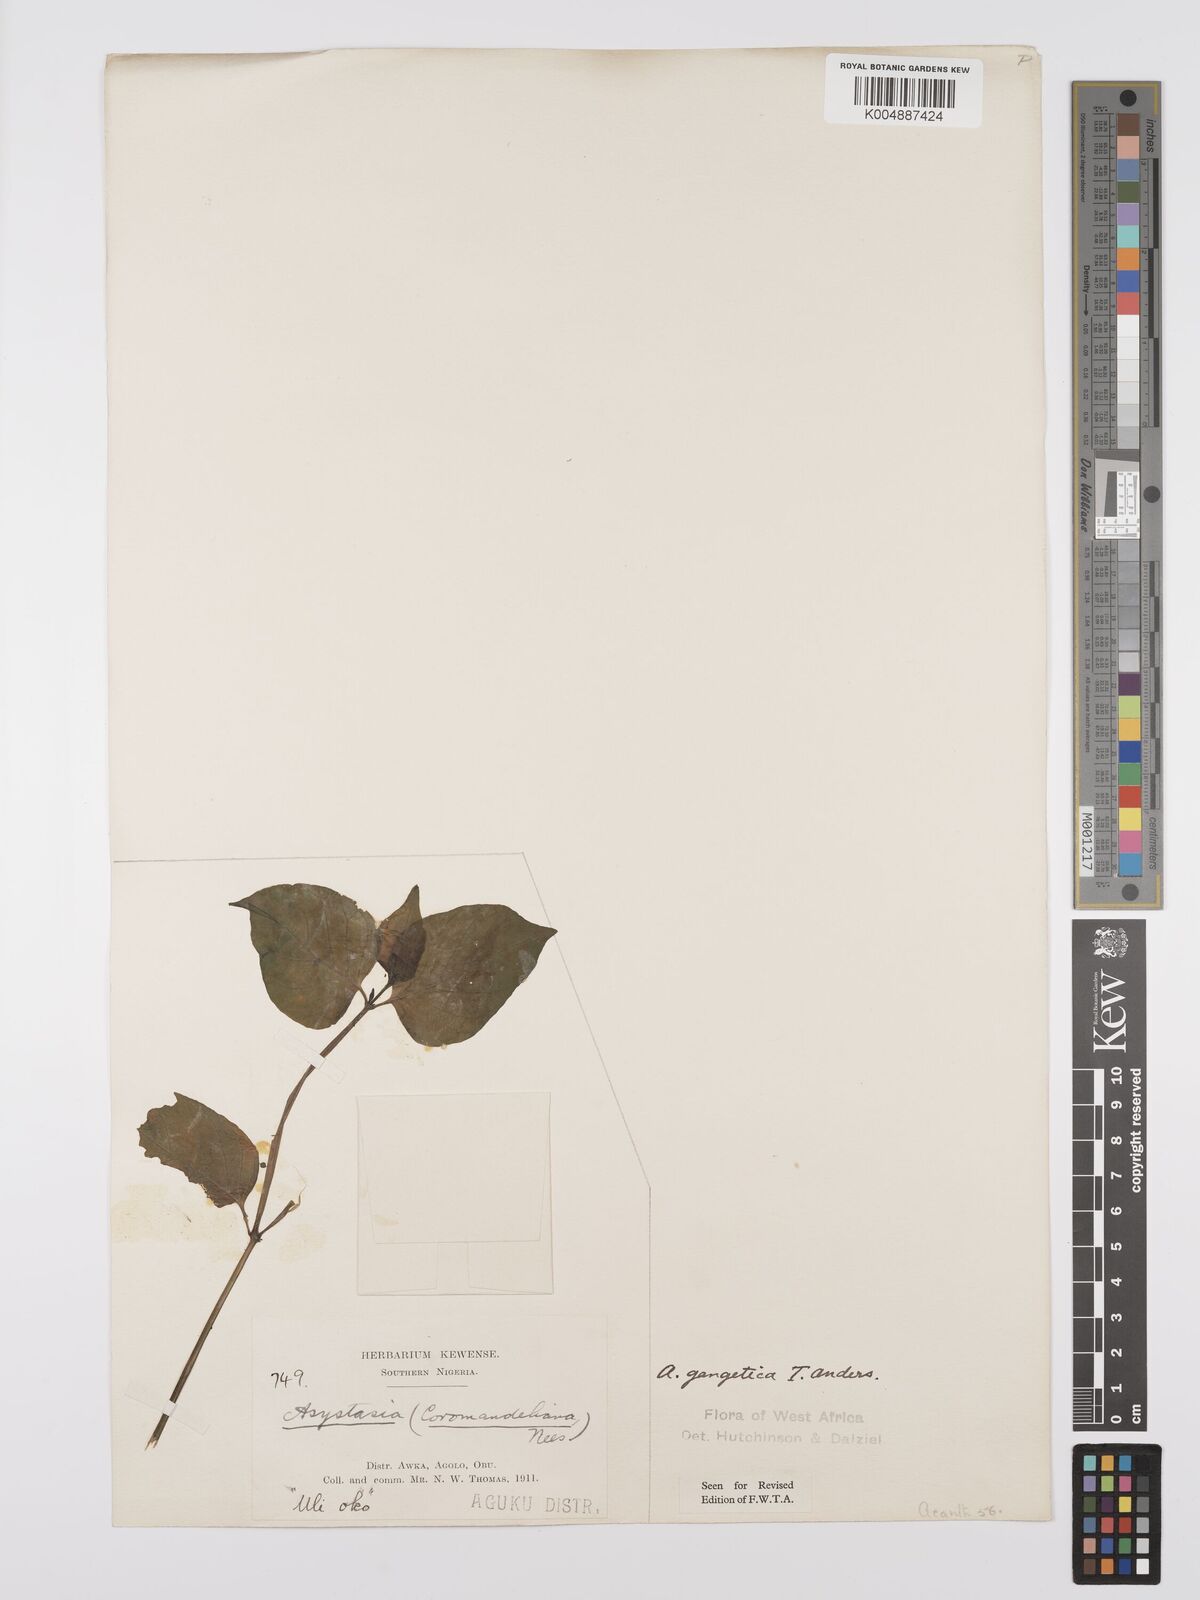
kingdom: Plantae
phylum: Tracheophyta
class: Magnoliopsida
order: Lamiales
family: Acanthaceae
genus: Asystasia
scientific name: Asystasia gangetica
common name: Chinese violet
